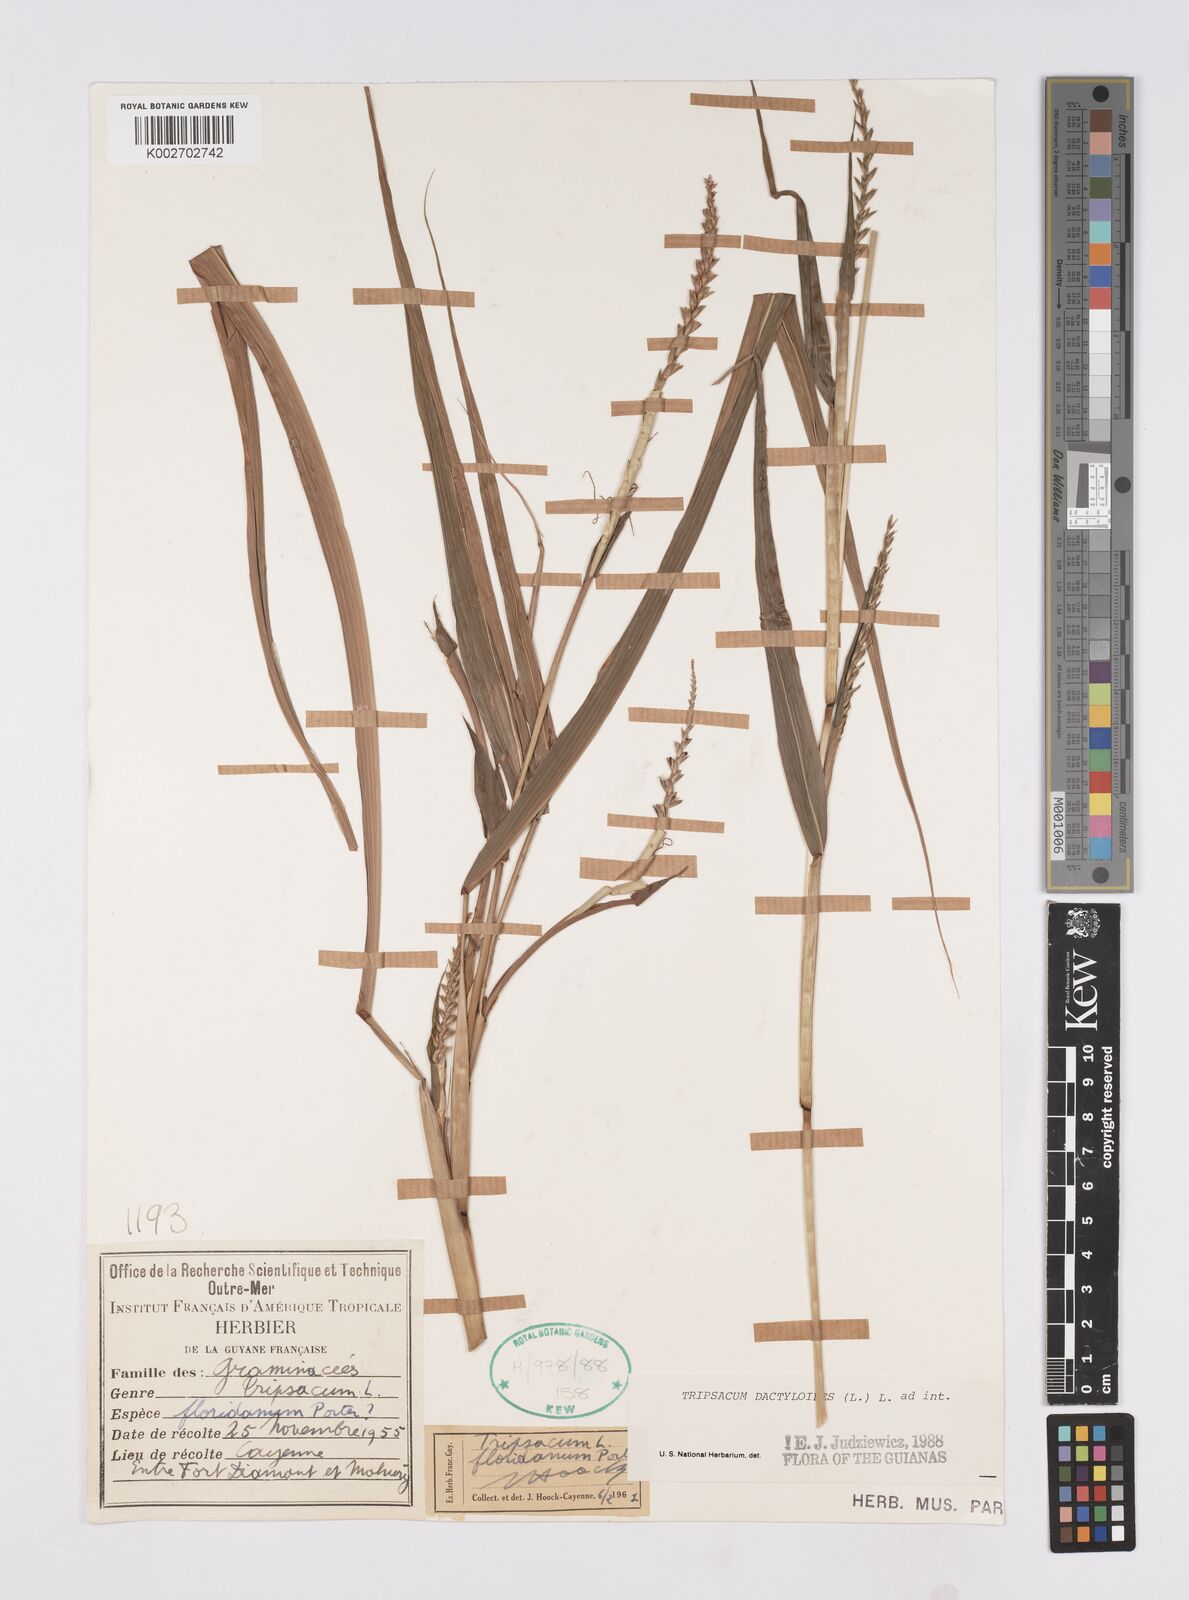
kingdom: Plantae
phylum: Tracheophyta
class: Liliopsida
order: Poales
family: Poaceae
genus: Tripsacum
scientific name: Tripsacum dactyloides
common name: Buffalo-grass
